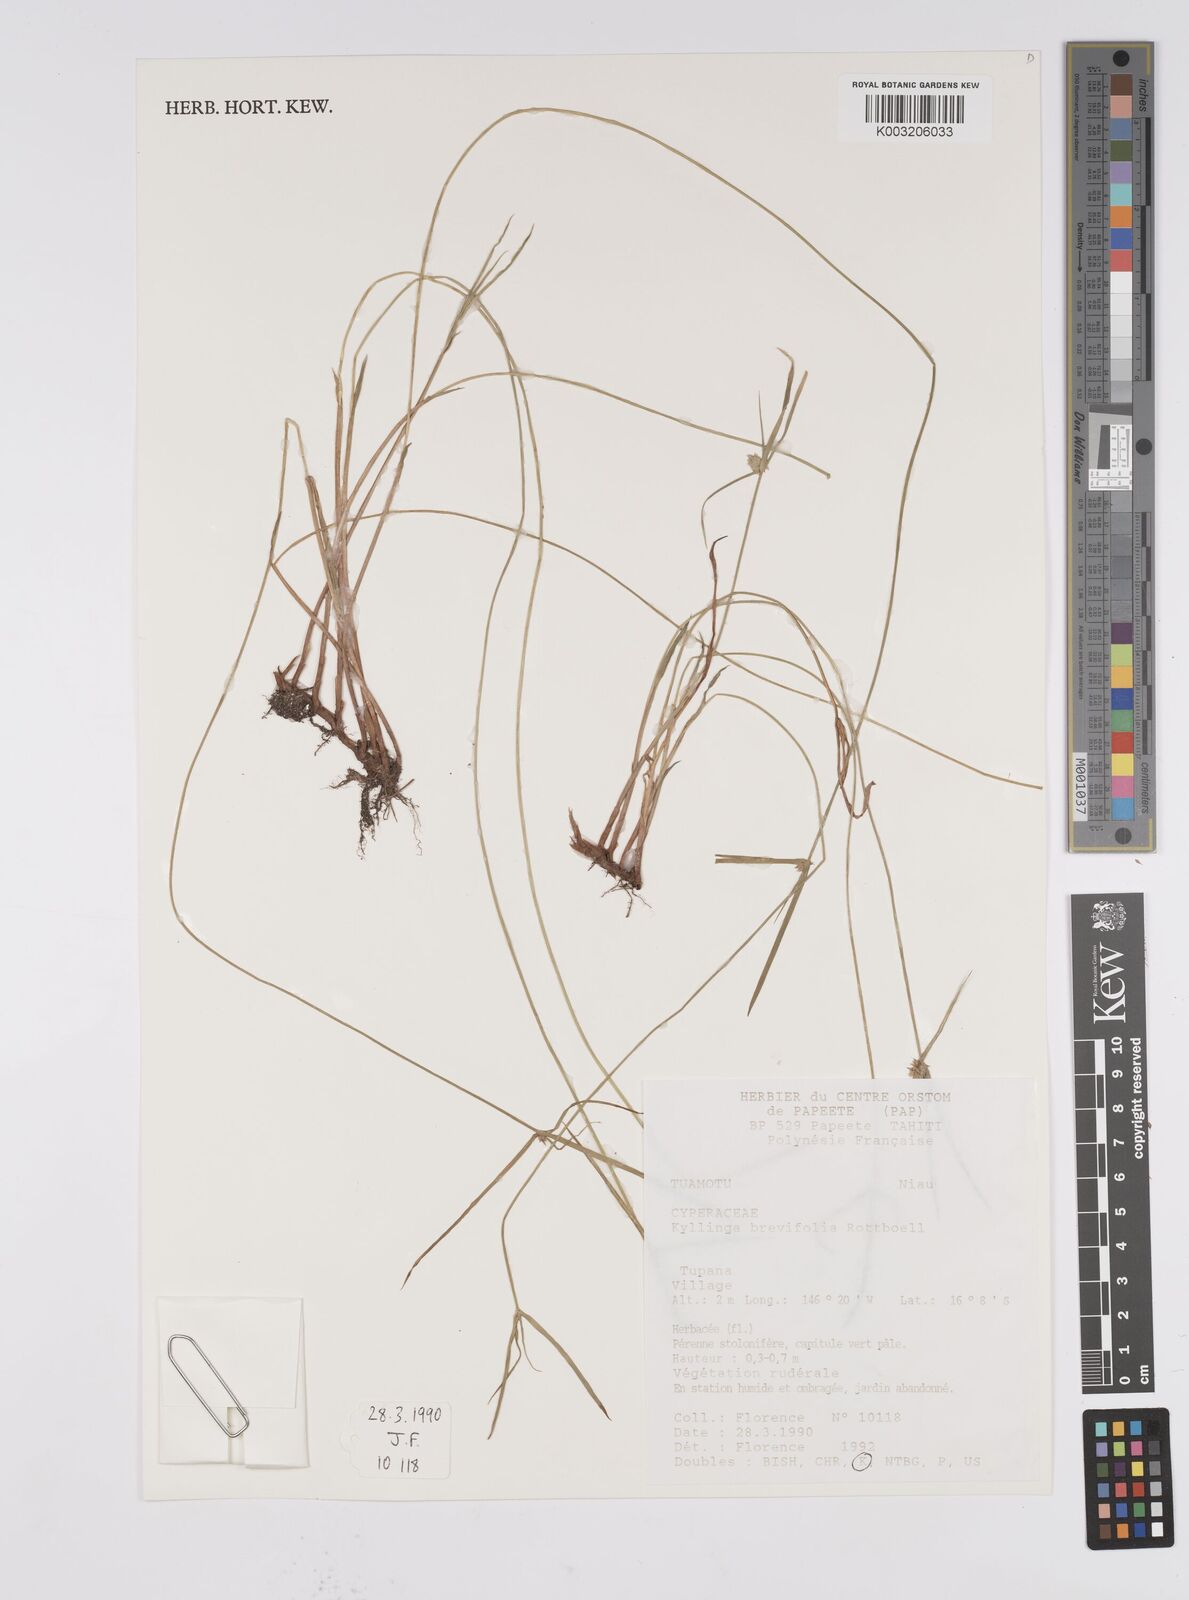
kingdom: Plantae
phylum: Tracheophyta
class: Liliopsida
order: Poales
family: Cyperaceae
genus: Cyperus
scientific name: Cyperus brevifolius
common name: Globe kyllinga
